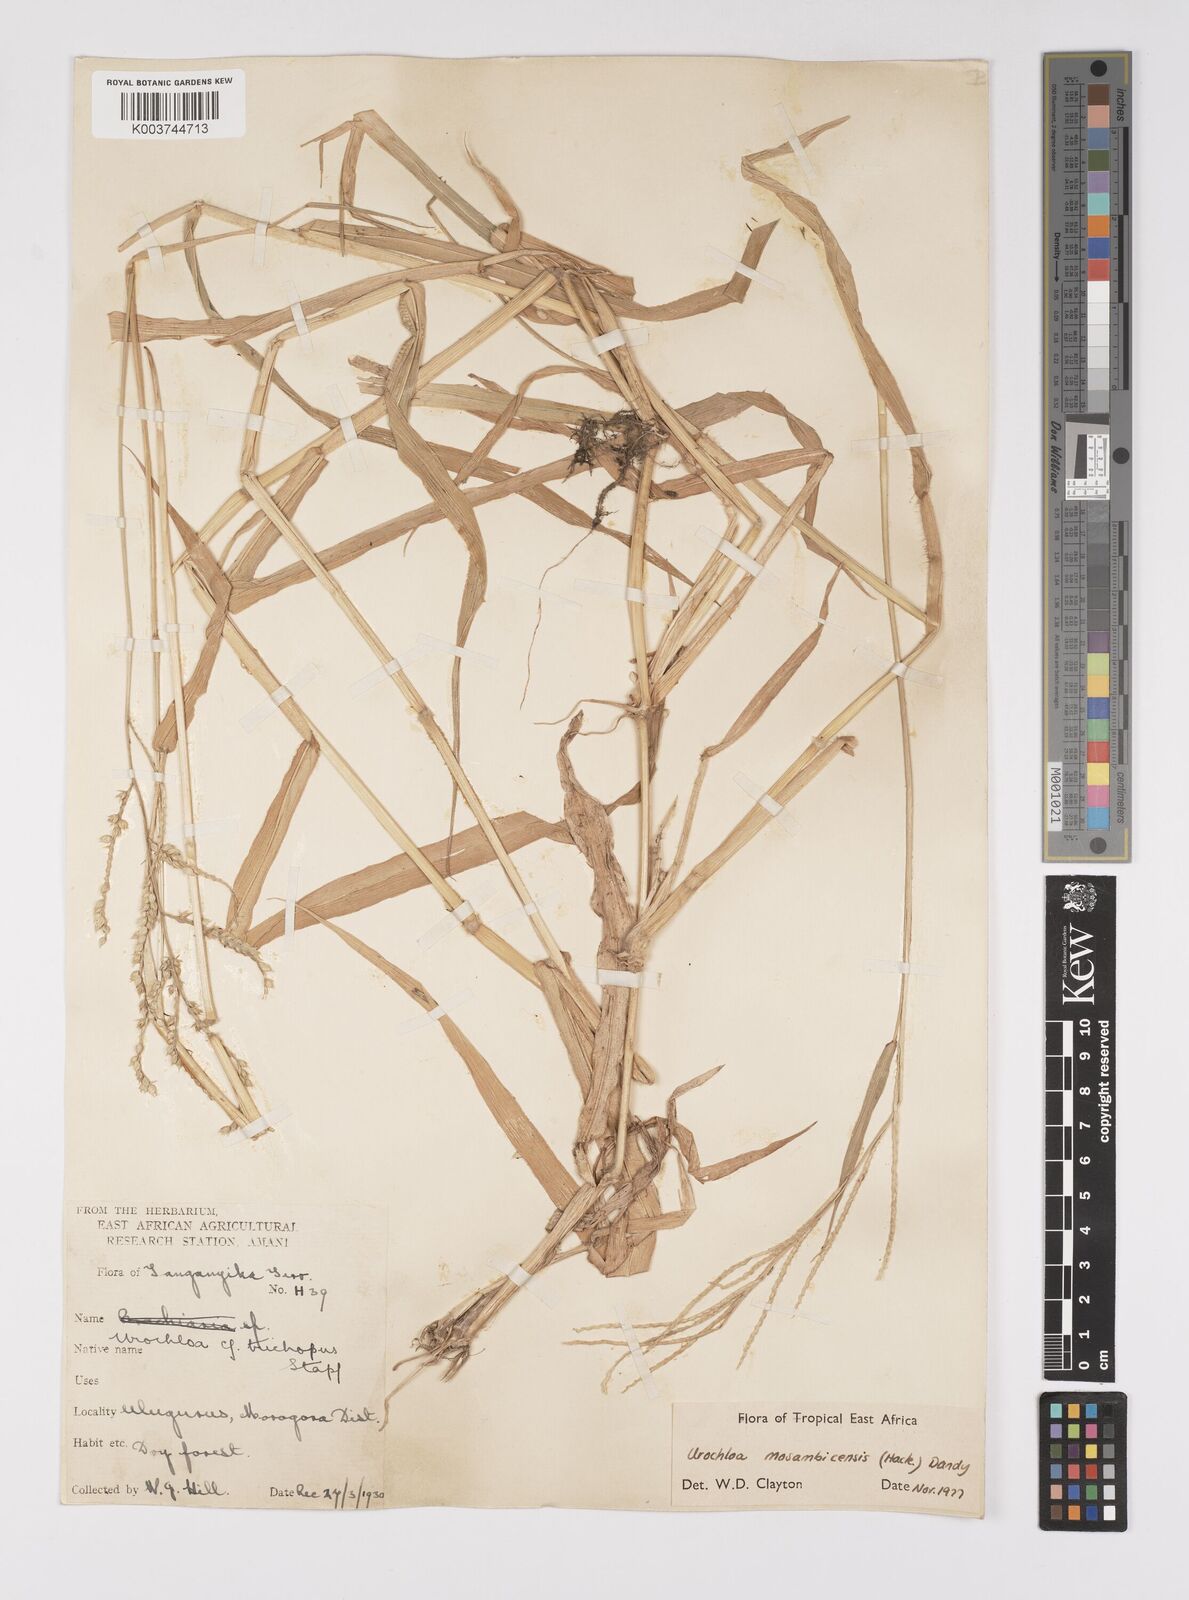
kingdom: Plantae
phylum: Tracheophyta
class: Liliopsida
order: Poales
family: Poaceae
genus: Urochloa
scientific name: Urochloa trichopus
